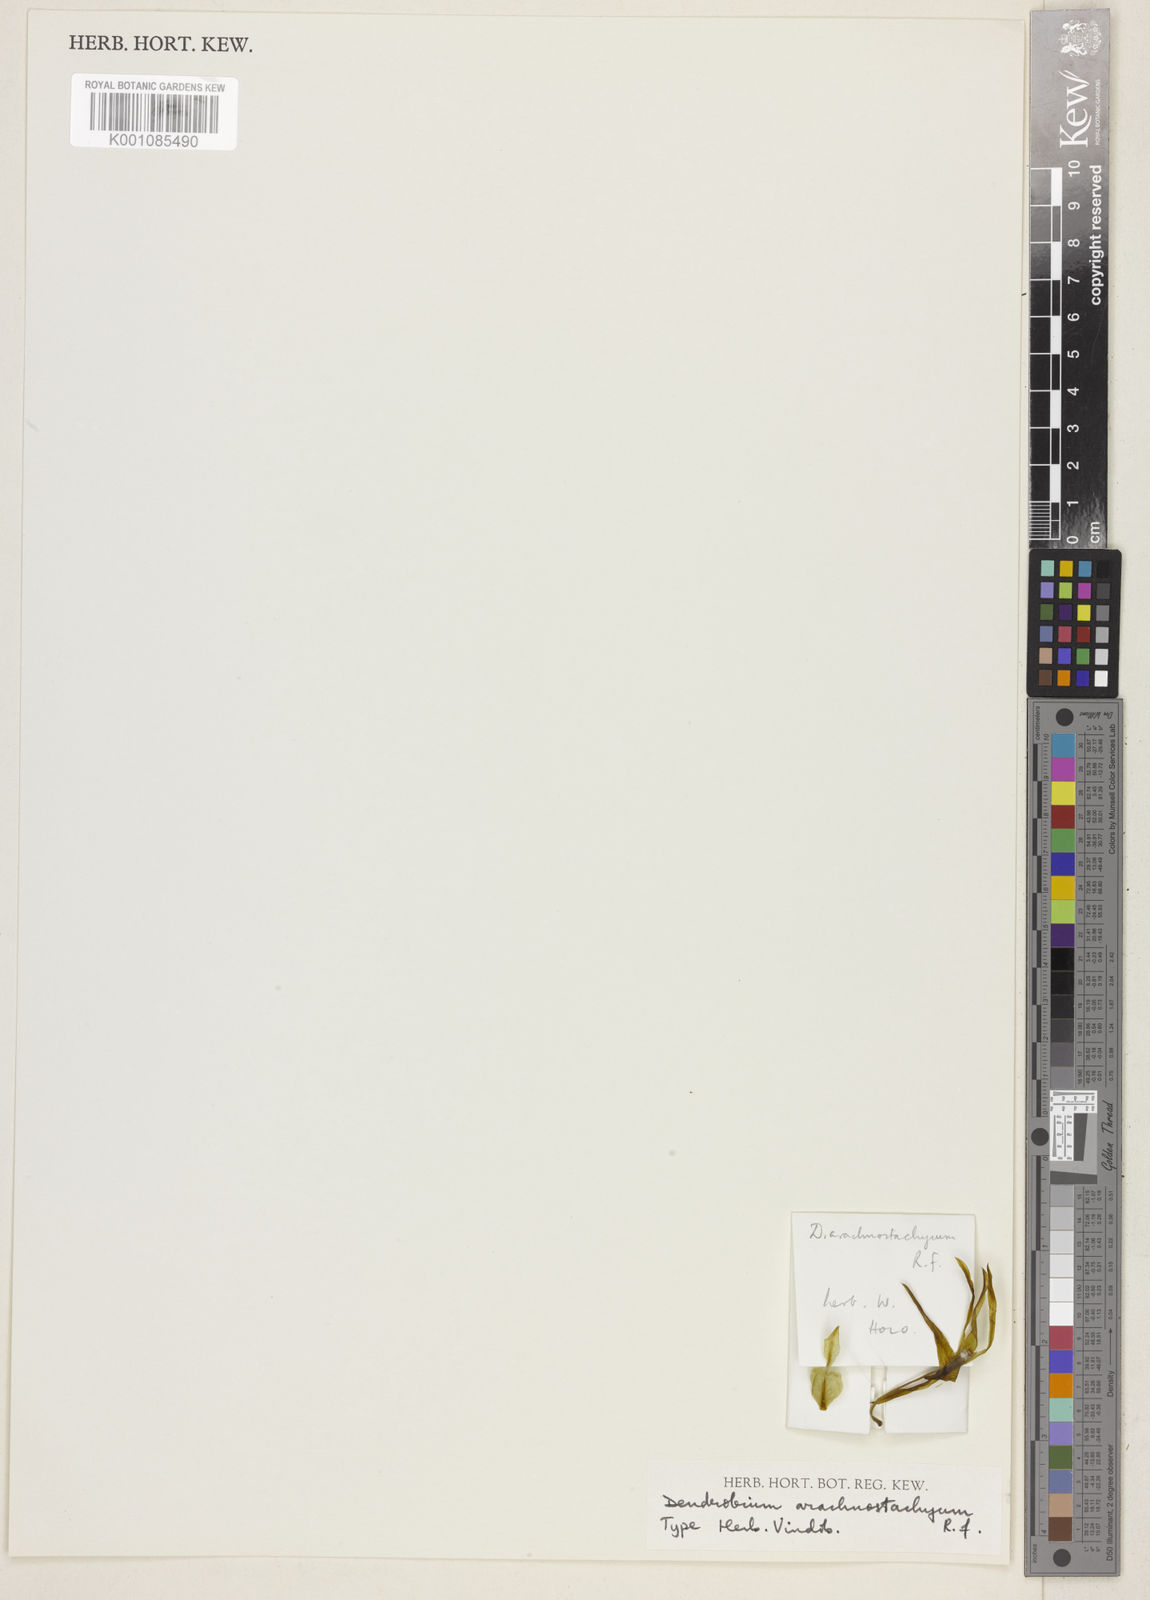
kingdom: Plantae
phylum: Tracheophyta
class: Liliopsida
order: Asparagales
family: Orchidaceae
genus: Dendrobium
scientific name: Dendrobium macranthum
